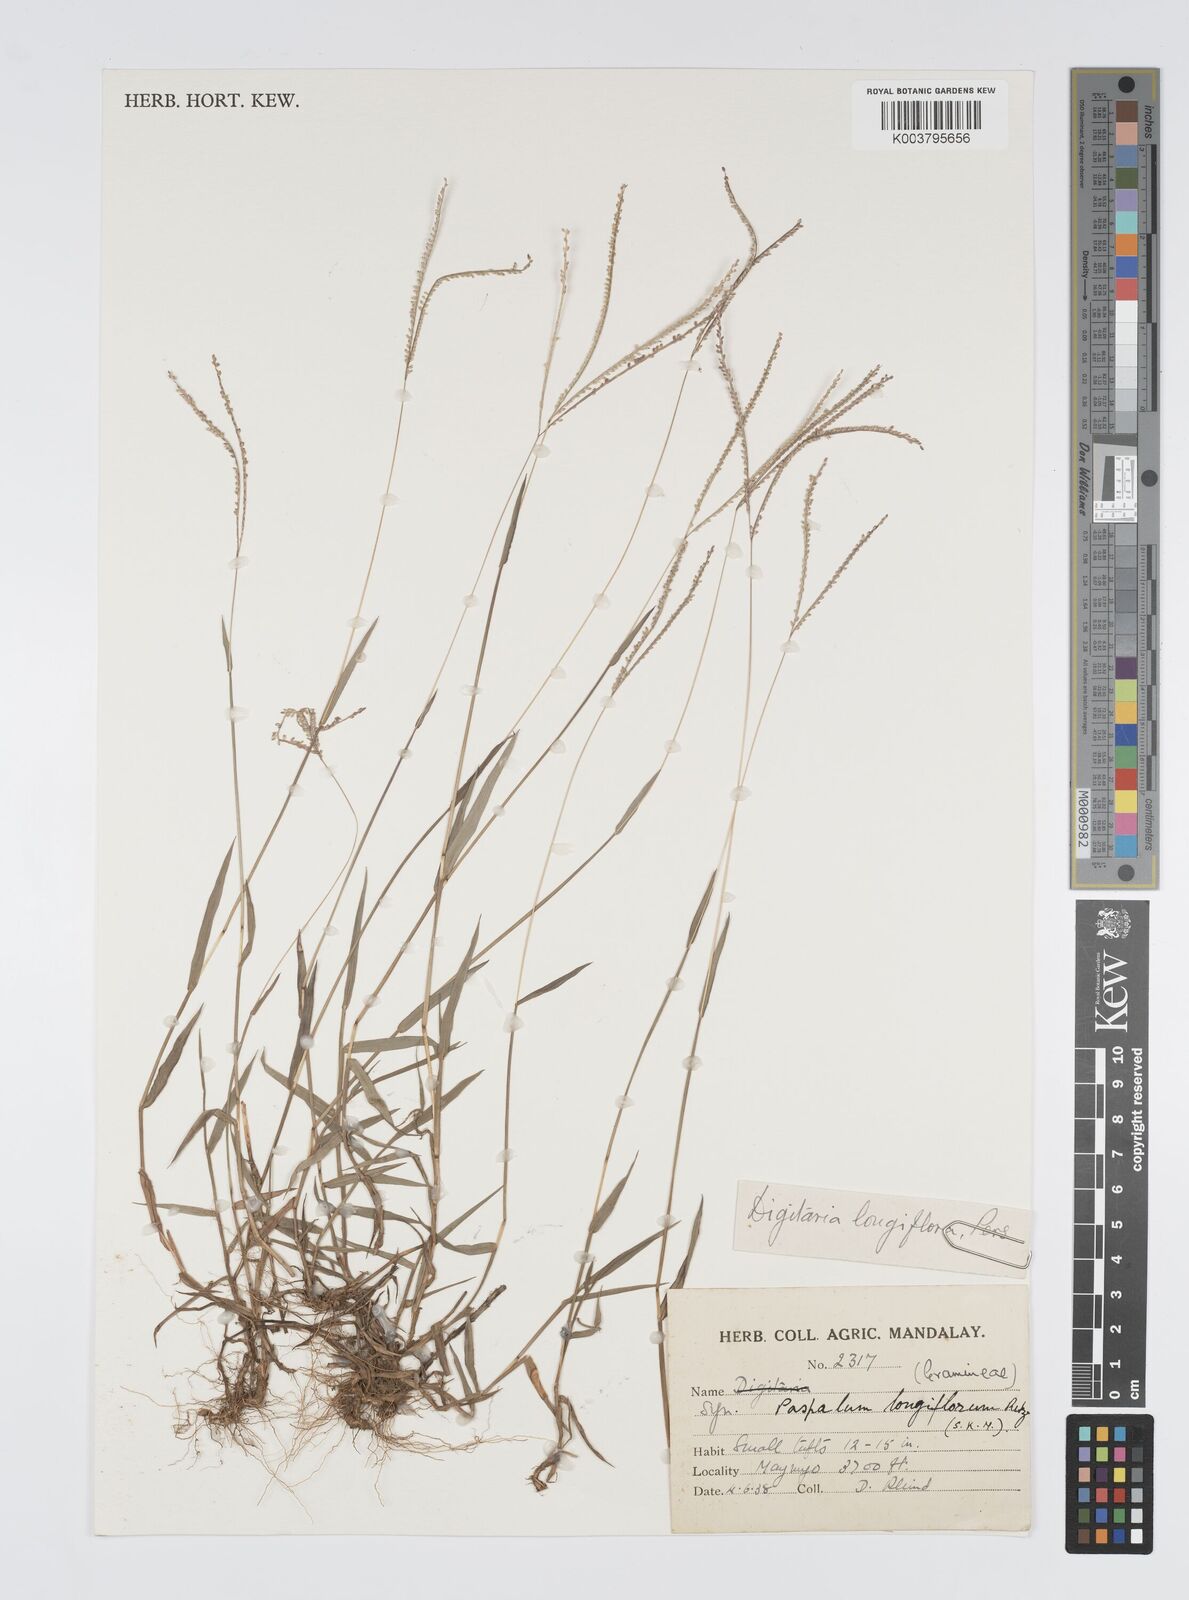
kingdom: Plantae
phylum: Tracheophyta
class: Liliopsida
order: Poales
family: Poaceae
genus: Digitaria
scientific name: Digitaria longiflora
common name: Wire crabgrass
